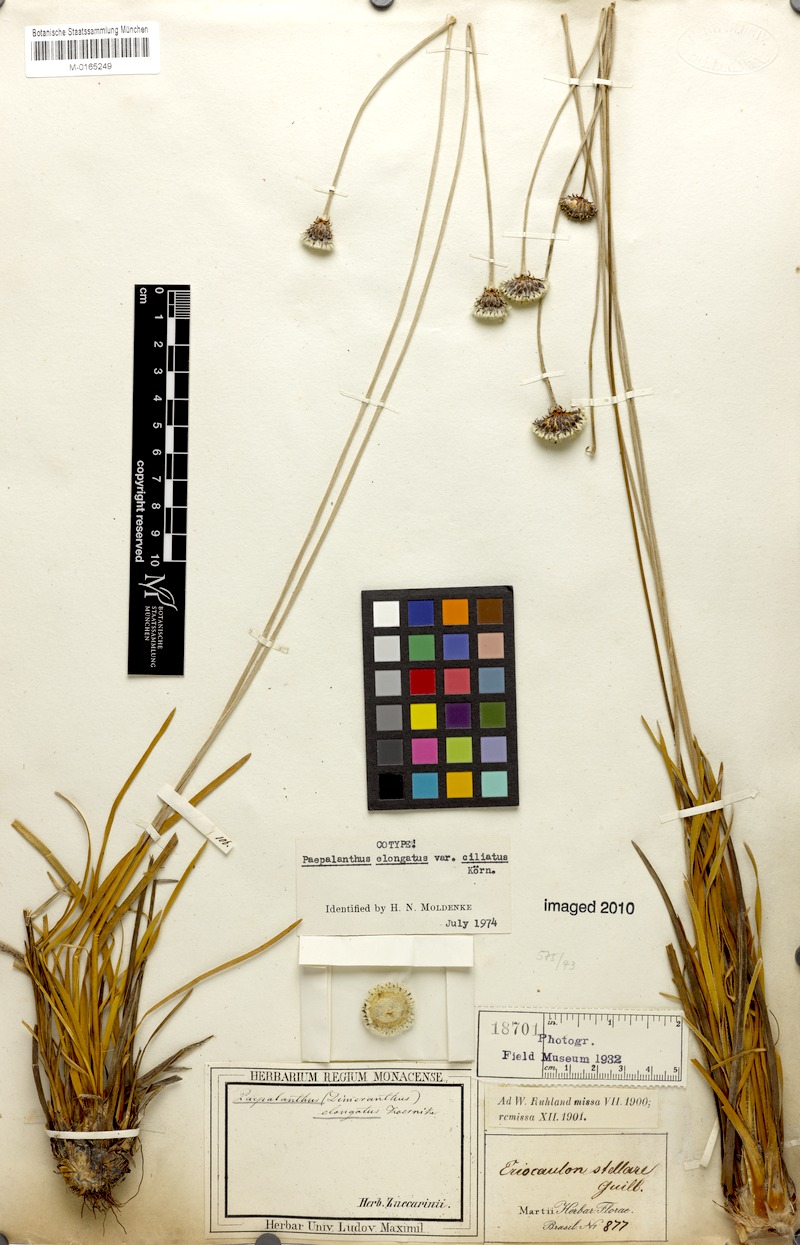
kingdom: Plantae
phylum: Tracheophyta
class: Liliopsida
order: Poales
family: Eriocaulaceae
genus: Paepalanthus
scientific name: Paepalanthus elongatus
